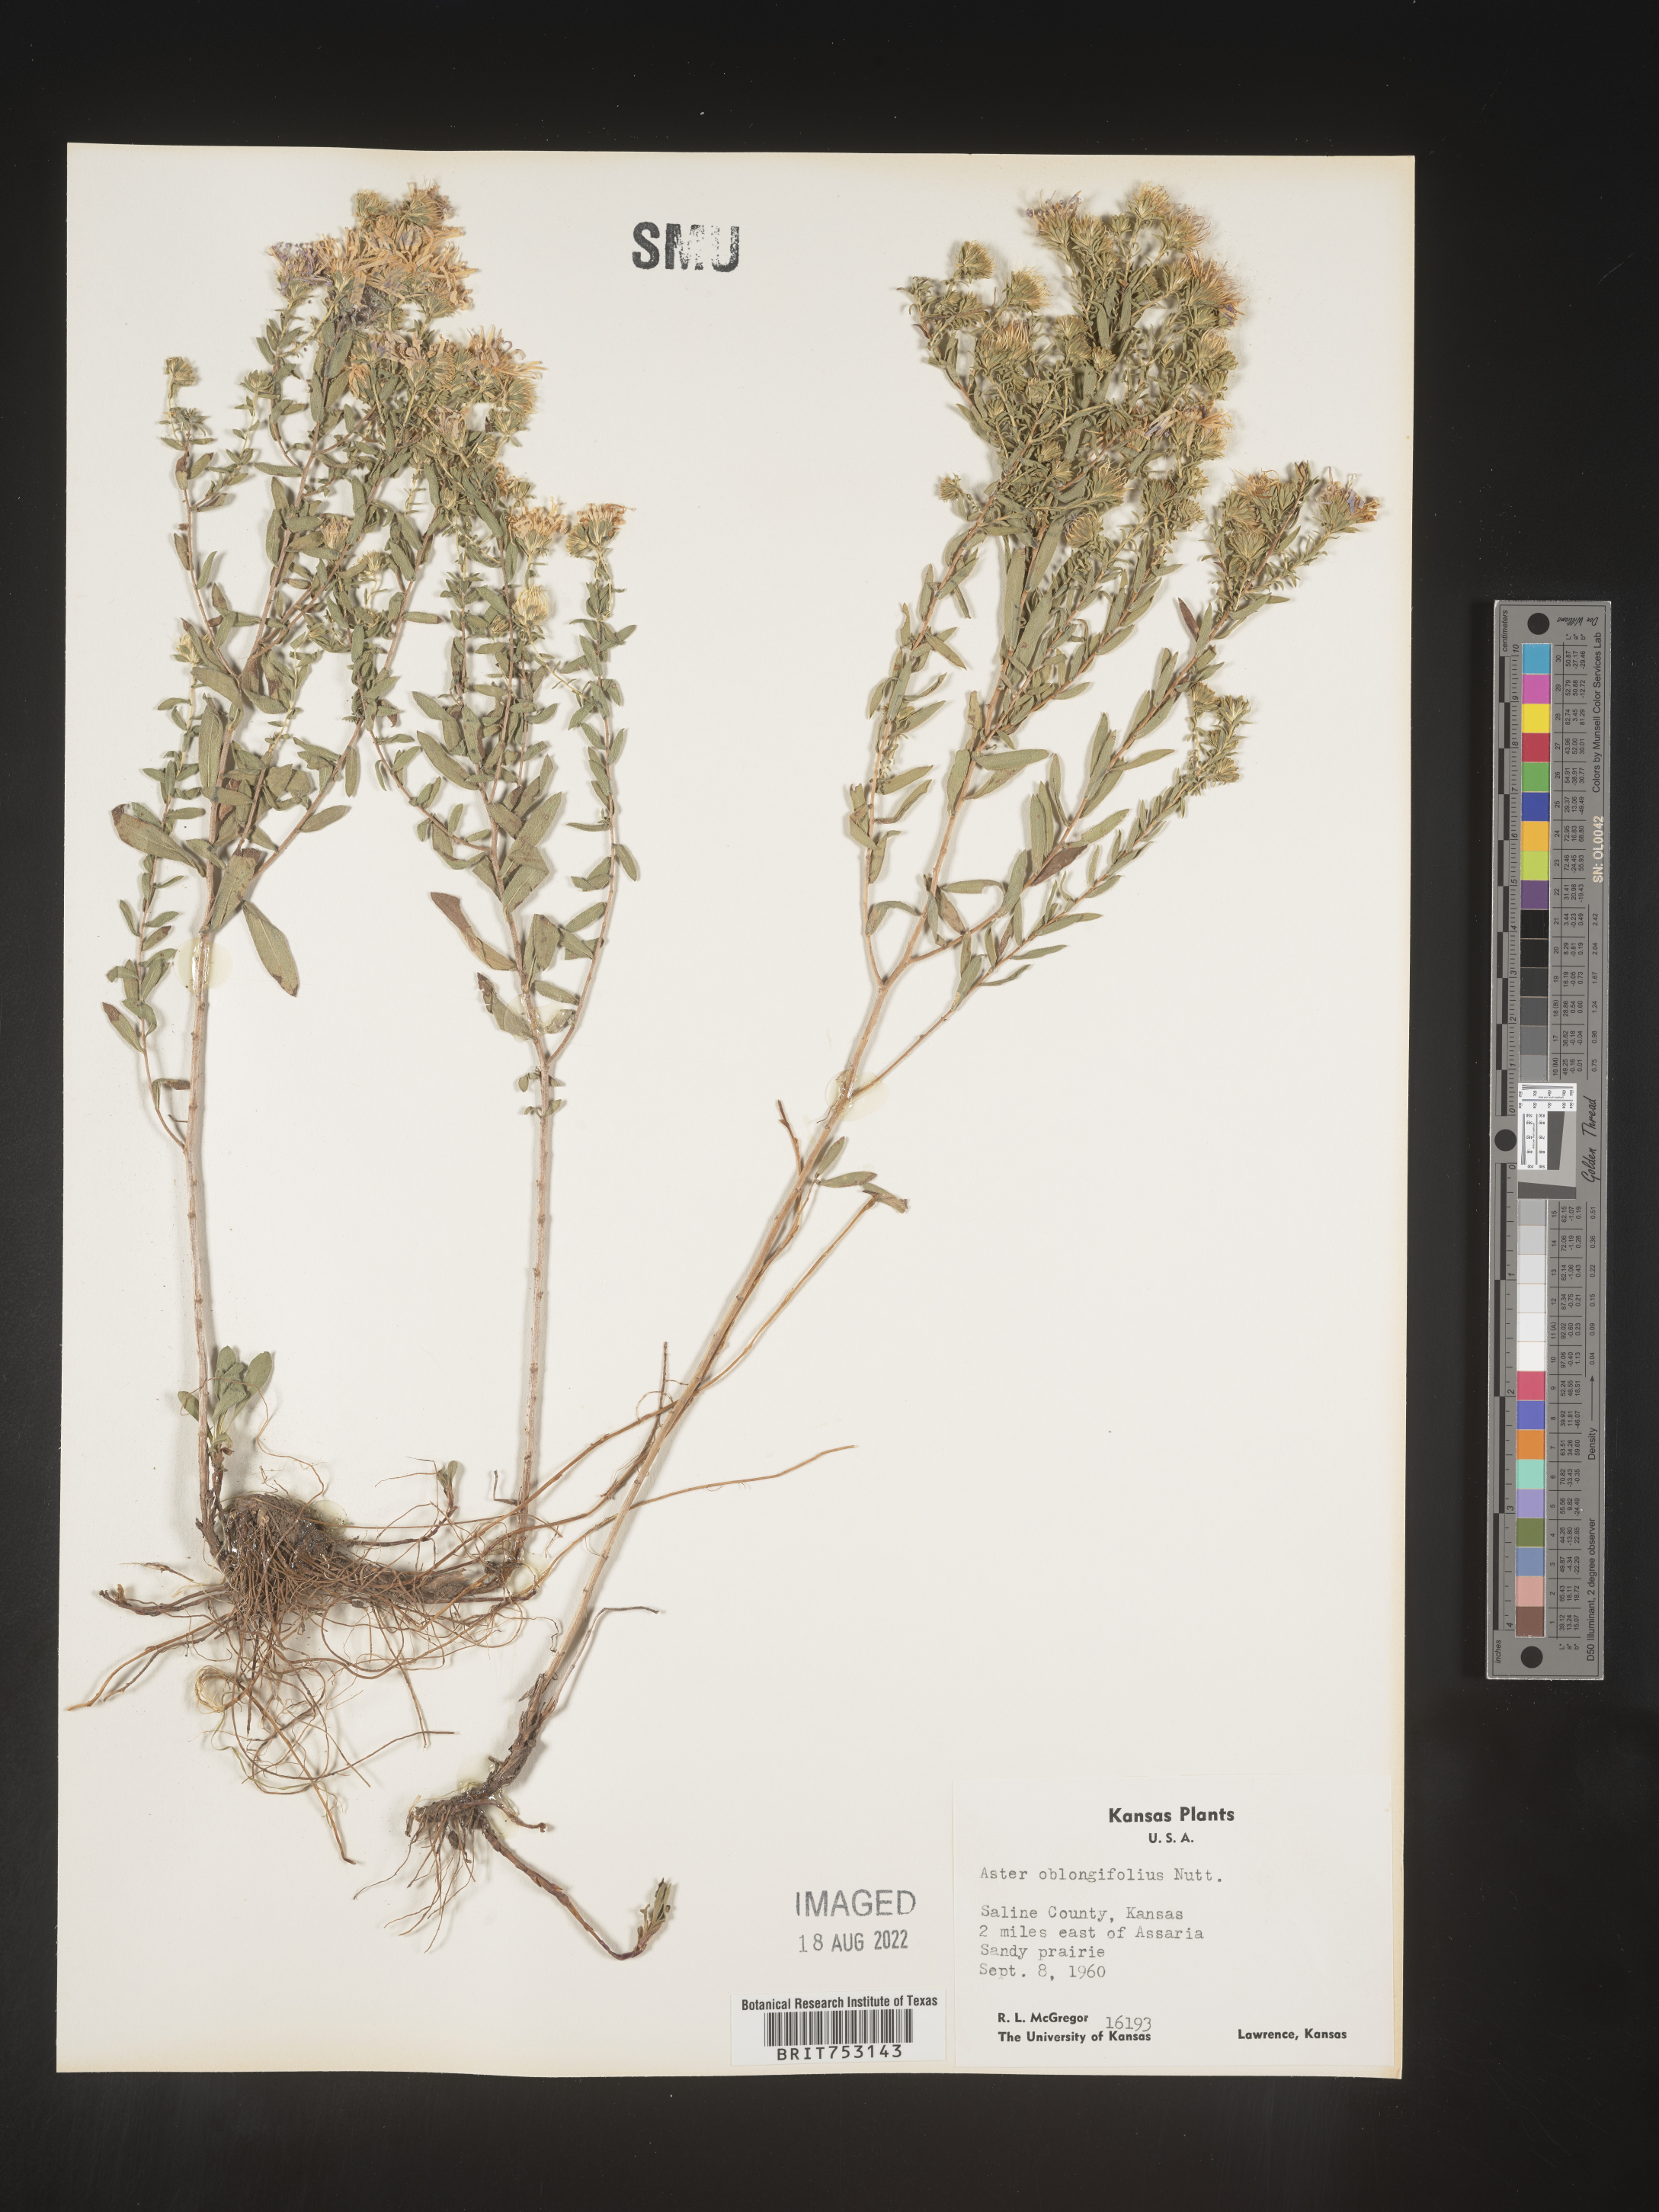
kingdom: Plantae
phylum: Tracheophyta
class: Magnoliopsida
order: Asterales
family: Asteraceae
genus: Symphyotrichum
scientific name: Symphyotrichum oblongifolium
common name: Aromatic aster
